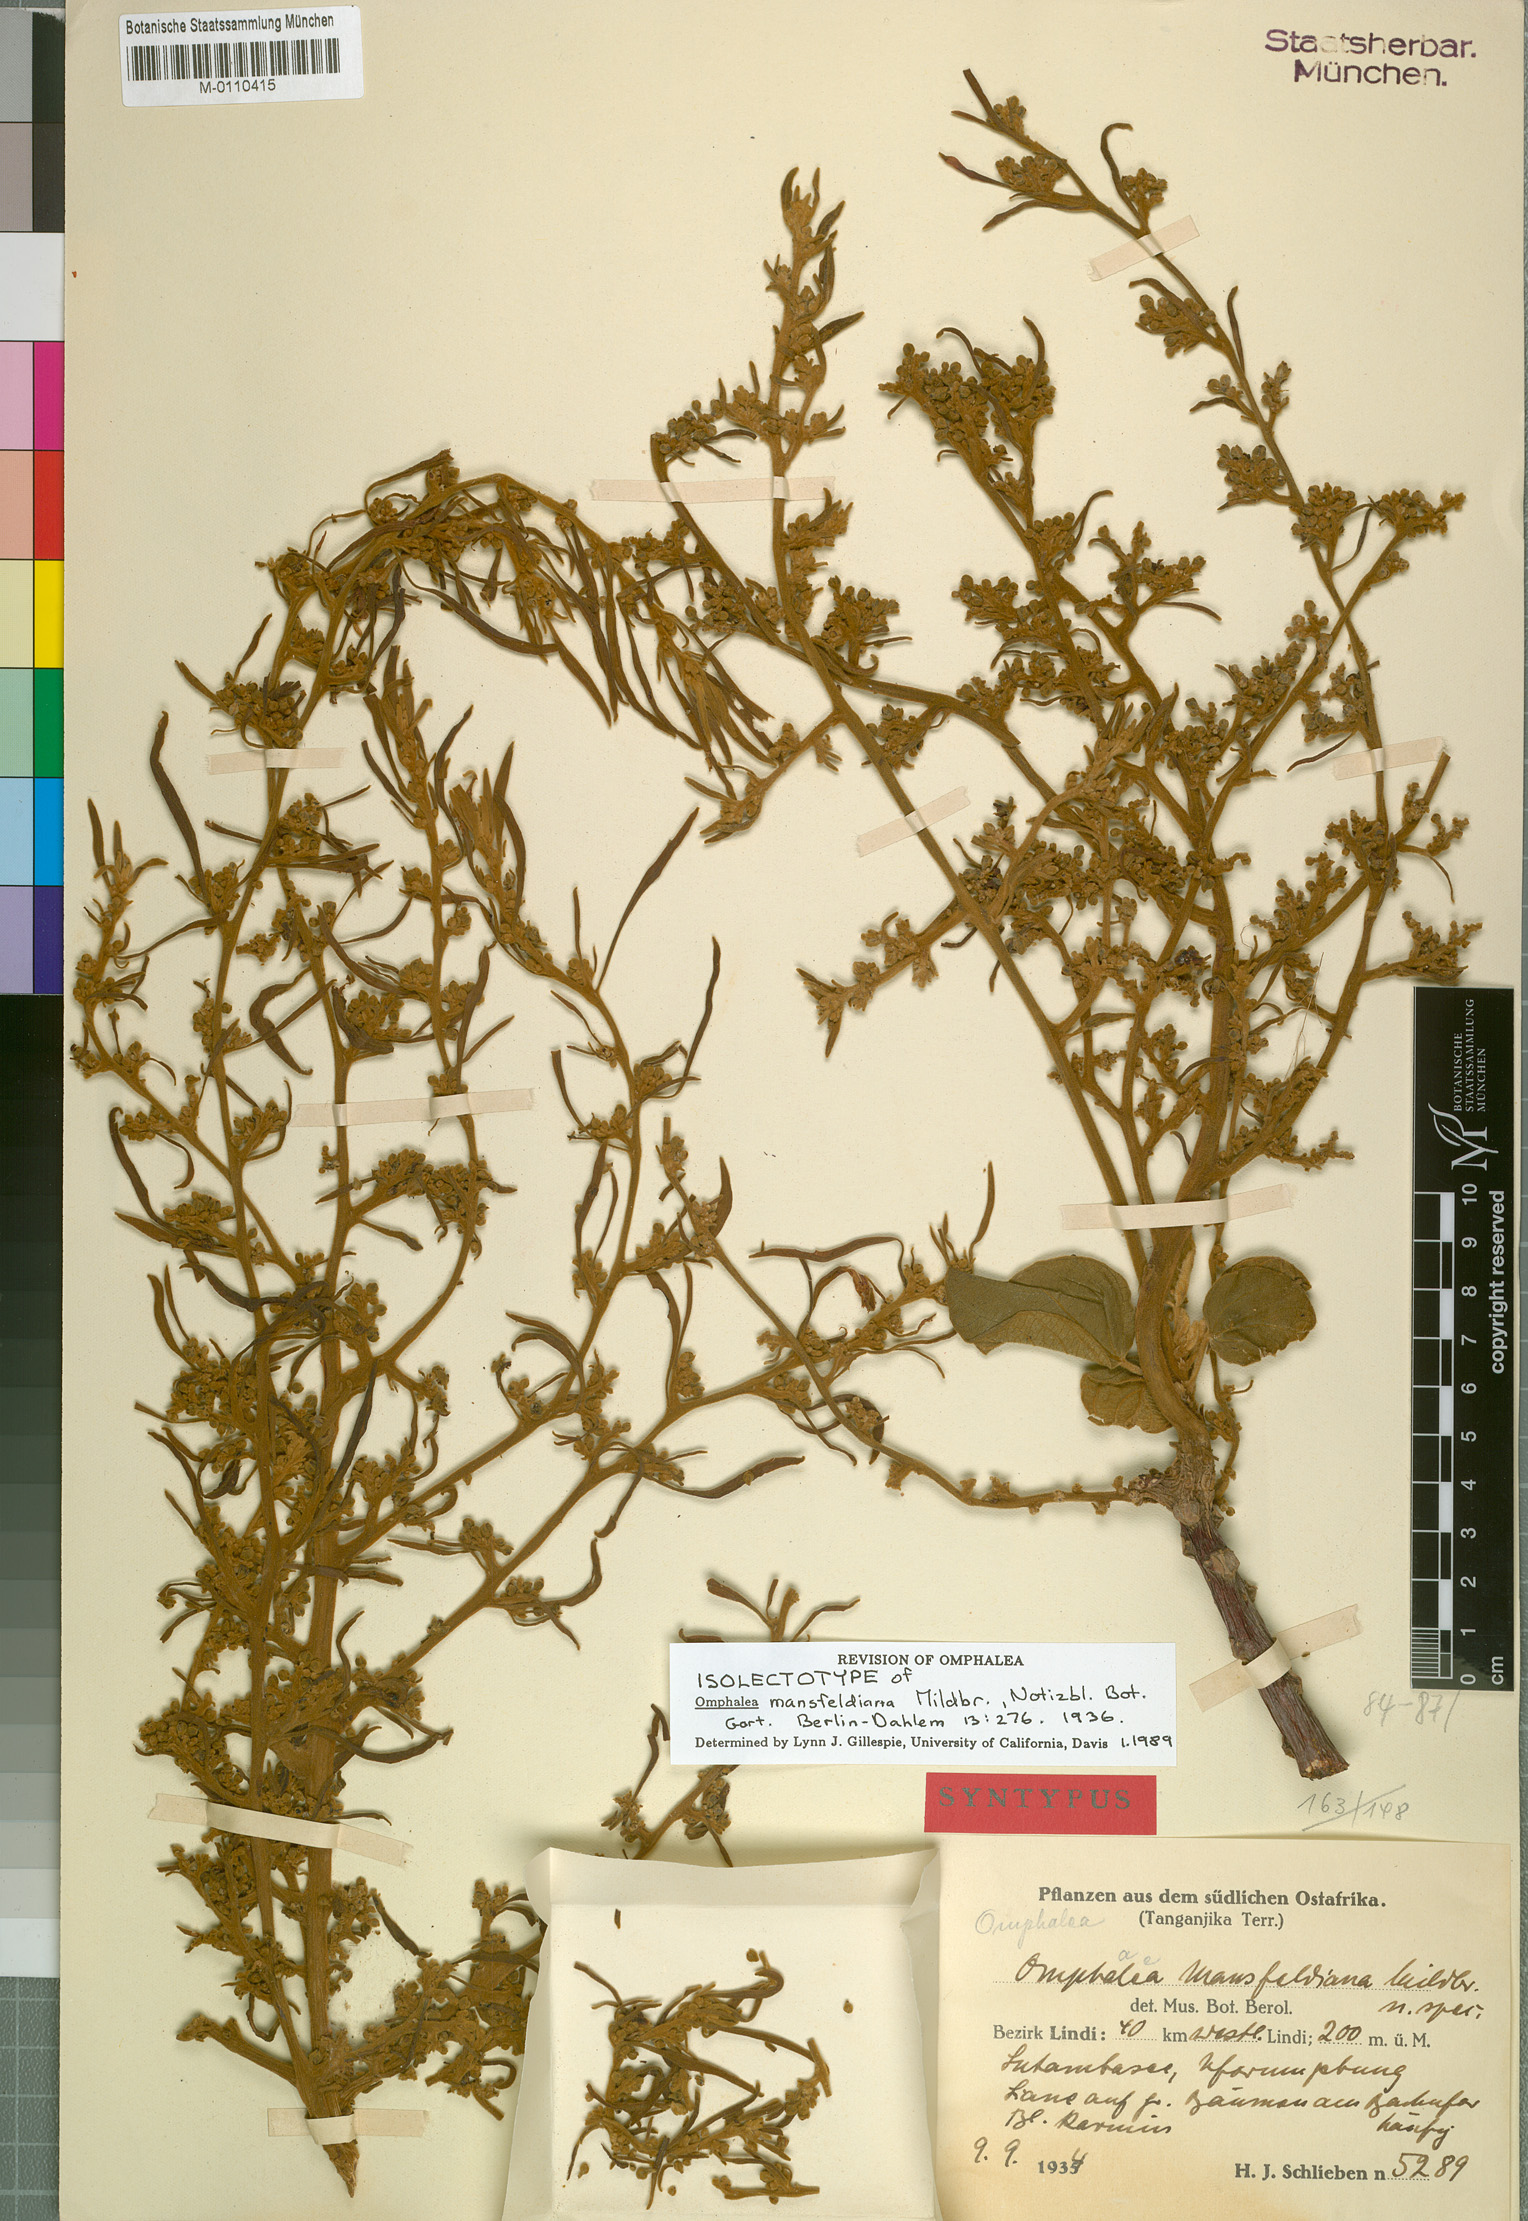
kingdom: Plantae
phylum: Tracheophyta
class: Magnoliopsida
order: Malpighiales
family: Euphorbiaceae
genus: Omphalea
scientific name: Omphalea mansfeldiana
